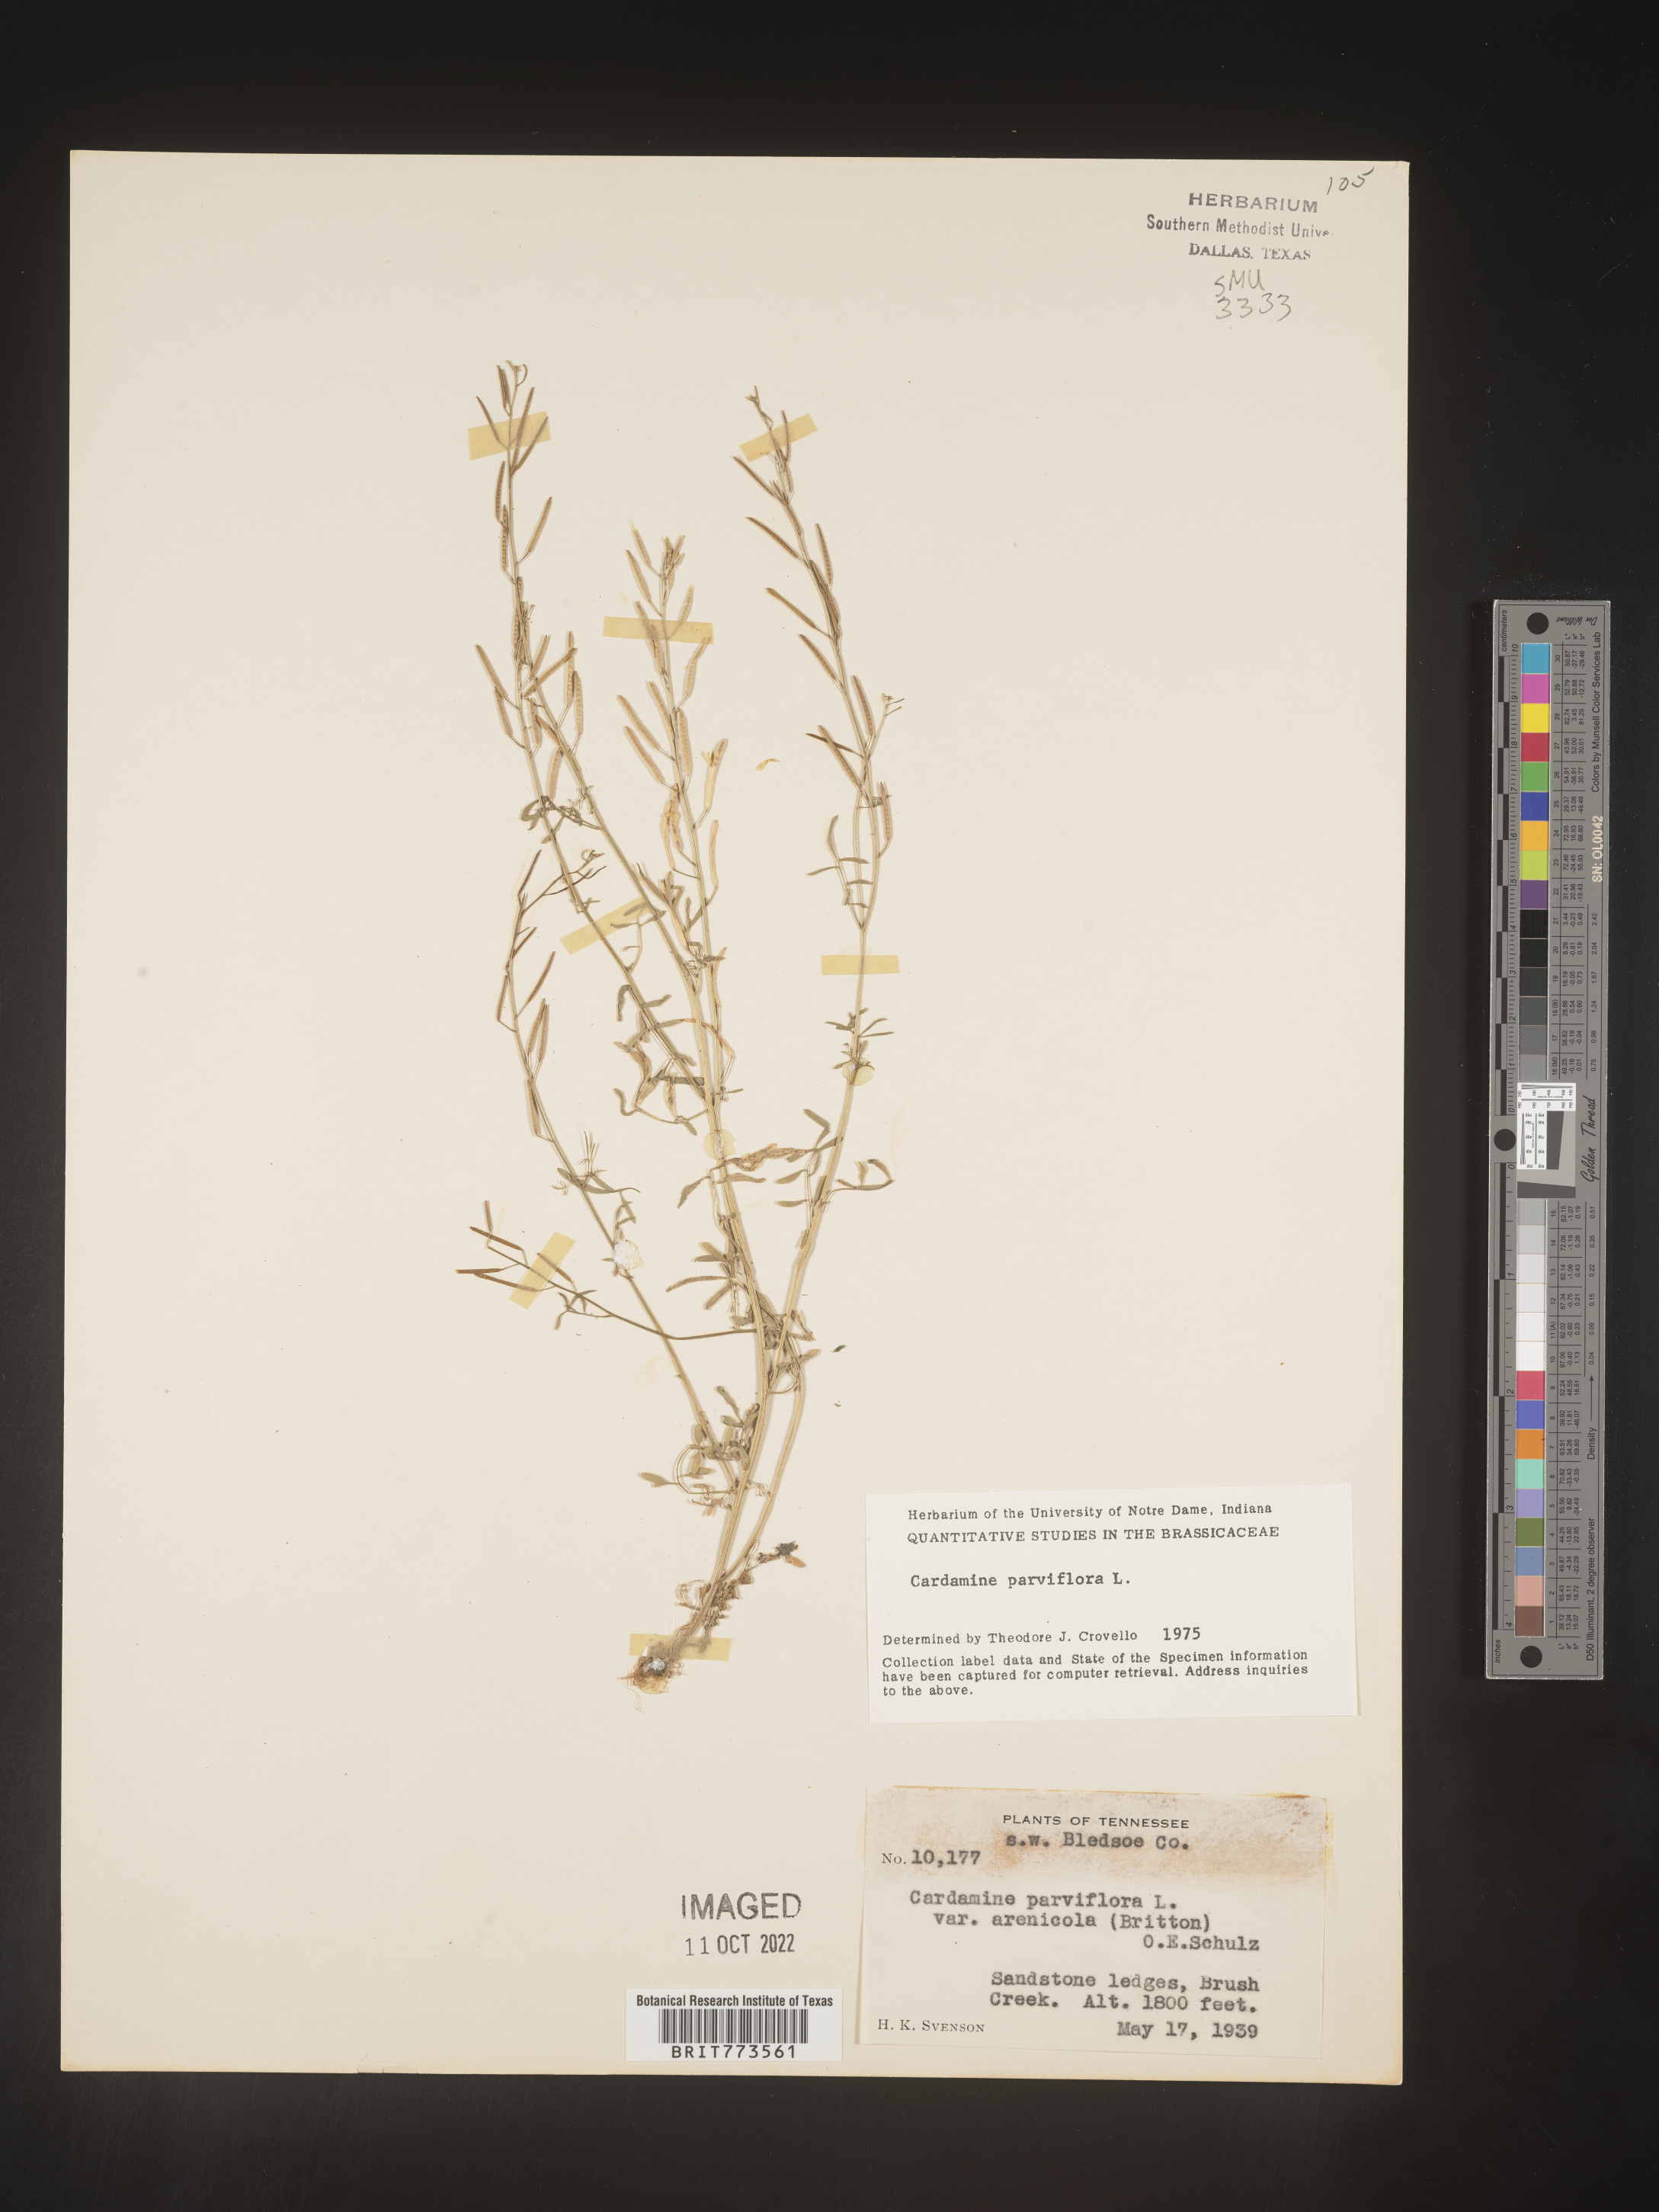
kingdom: Plantae
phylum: Tracheophyta
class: Magnoliopsida
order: Brassicales
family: Brassicaceae
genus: Cardamine
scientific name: Cardamine parviflora
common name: Sand bittercress
